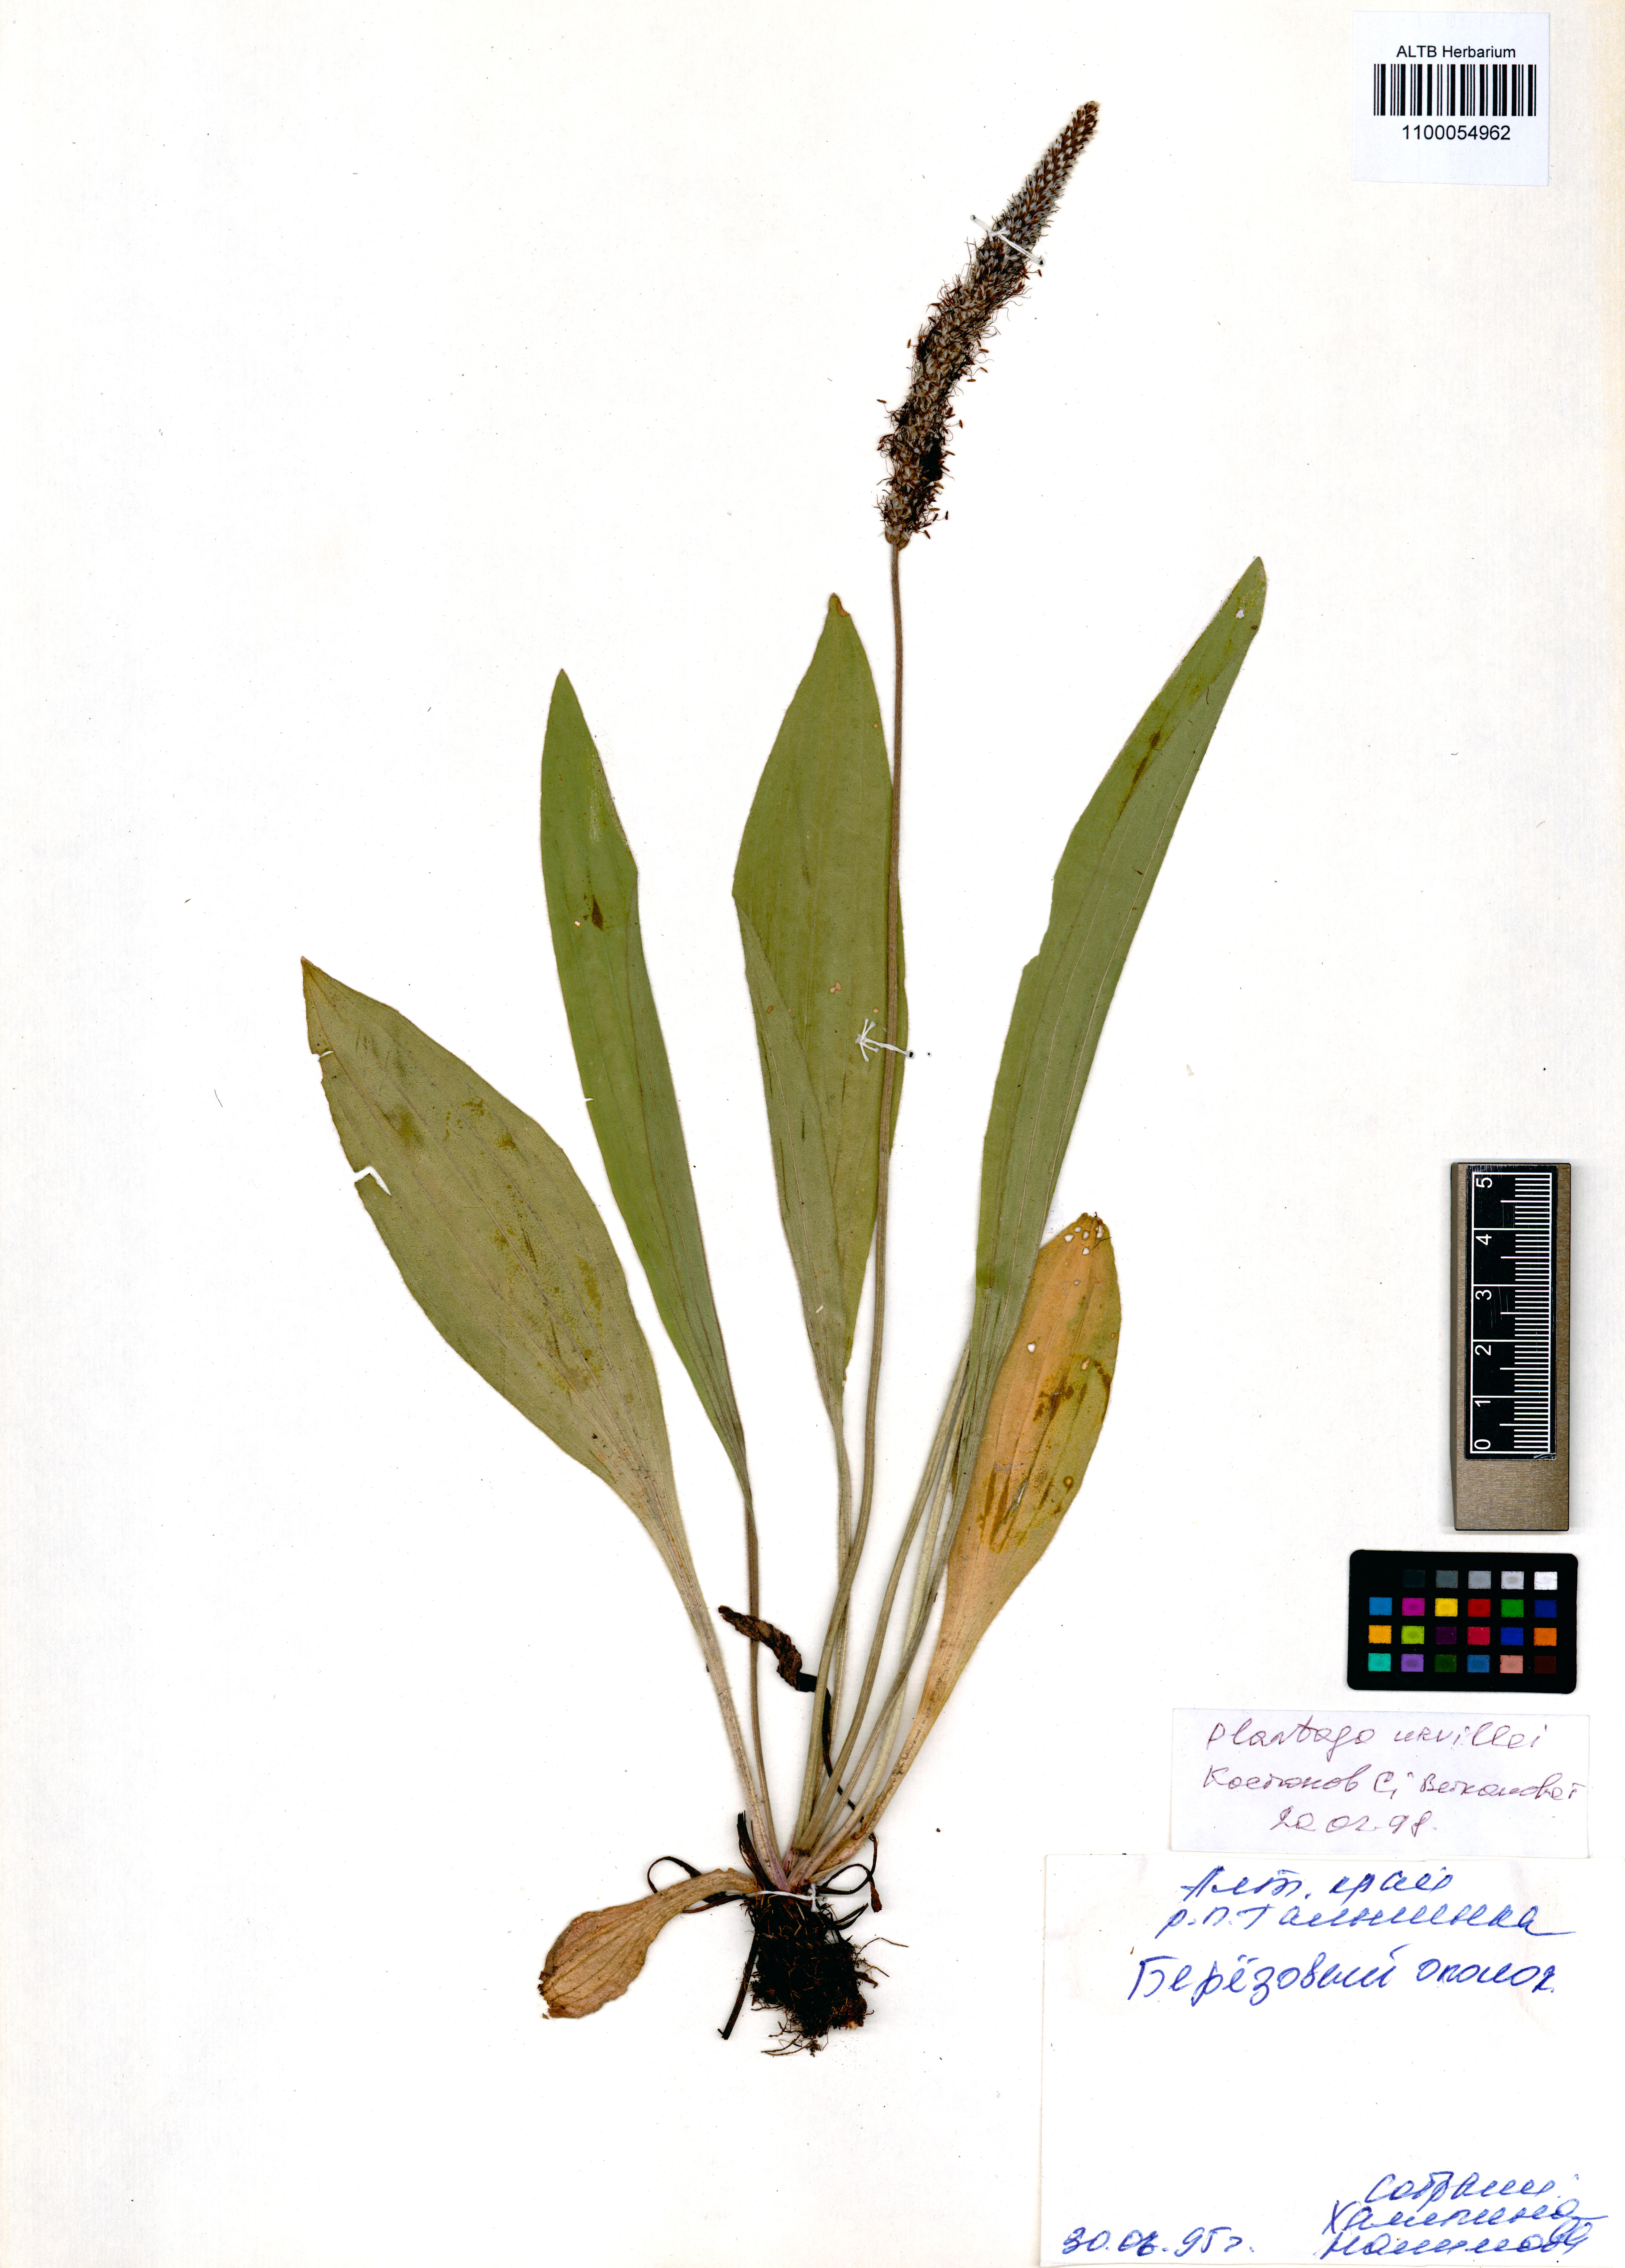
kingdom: Plantae
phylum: Tracheophyta
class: Magnoliopsida
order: Lamiales
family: Plantaginaceae
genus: Plantago
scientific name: Plantago urvillei
